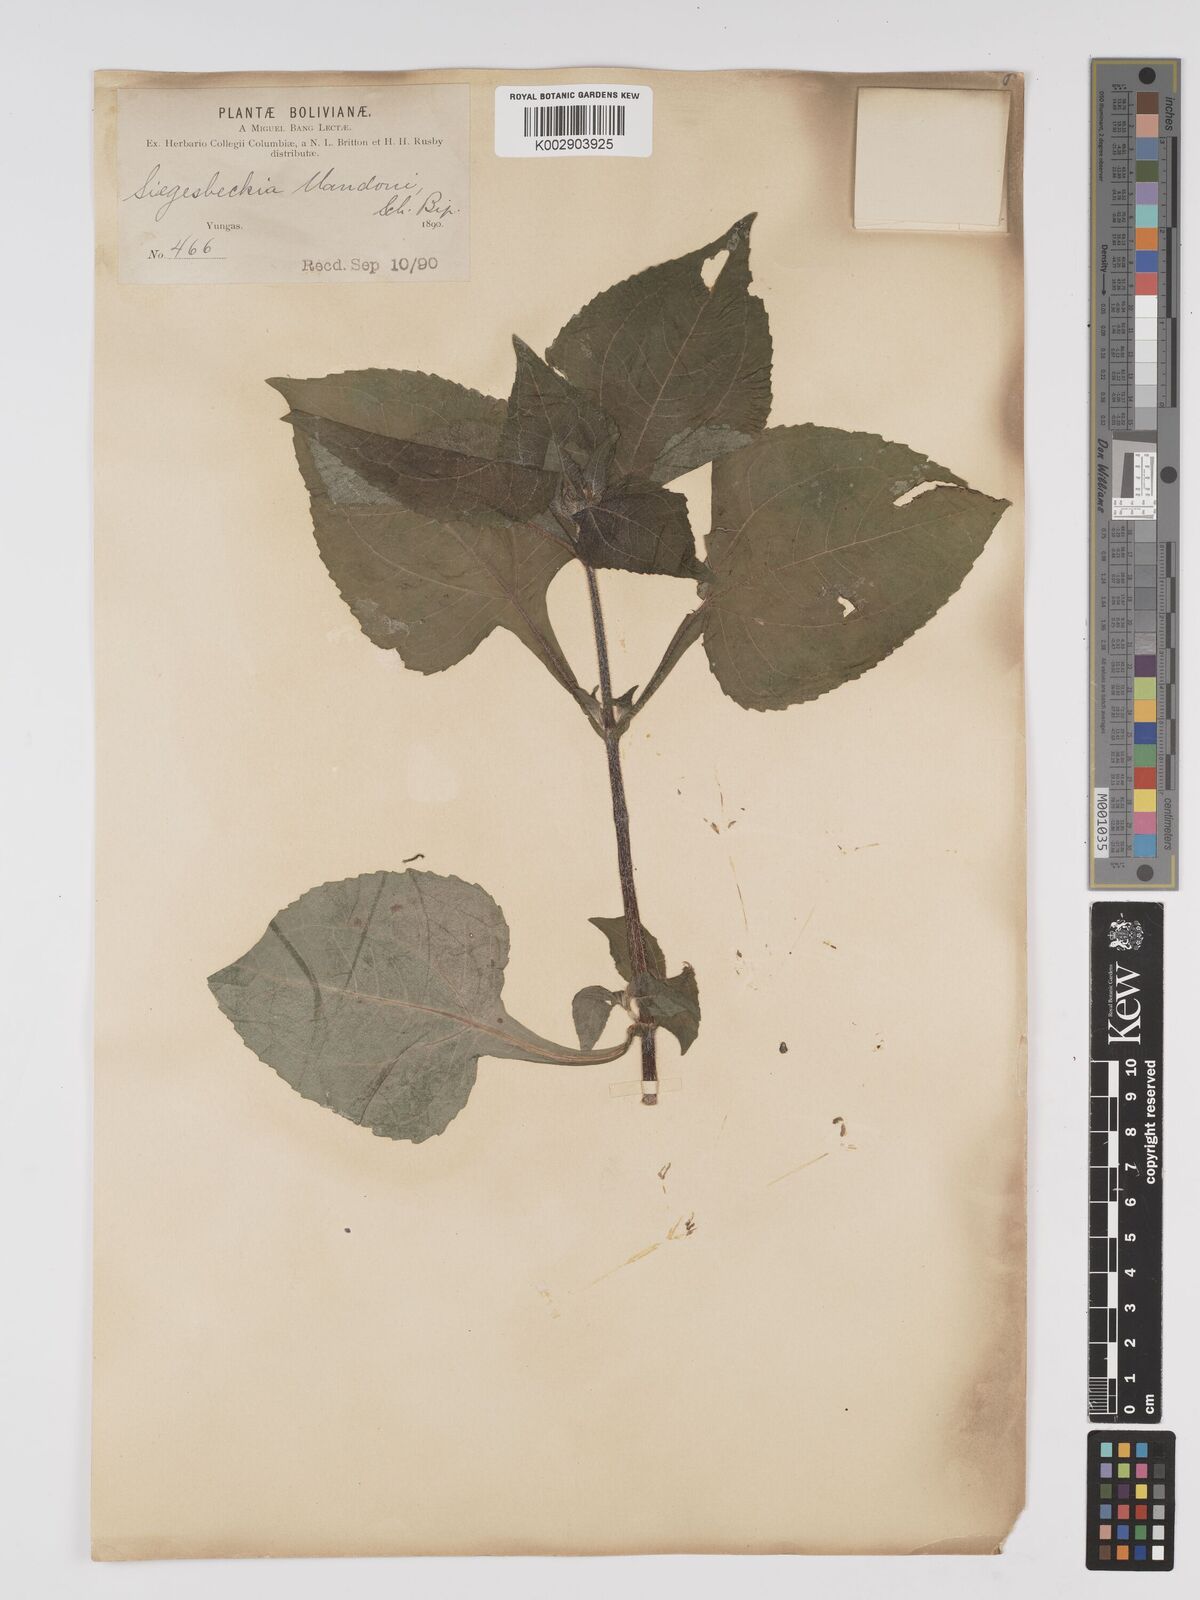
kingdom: Plantae
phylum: Tracheophyta
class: Magnoliopsida
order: Asterales
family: Asteraceae
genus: Sigesbeckia
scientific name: Sigesbeckia jorullensis
